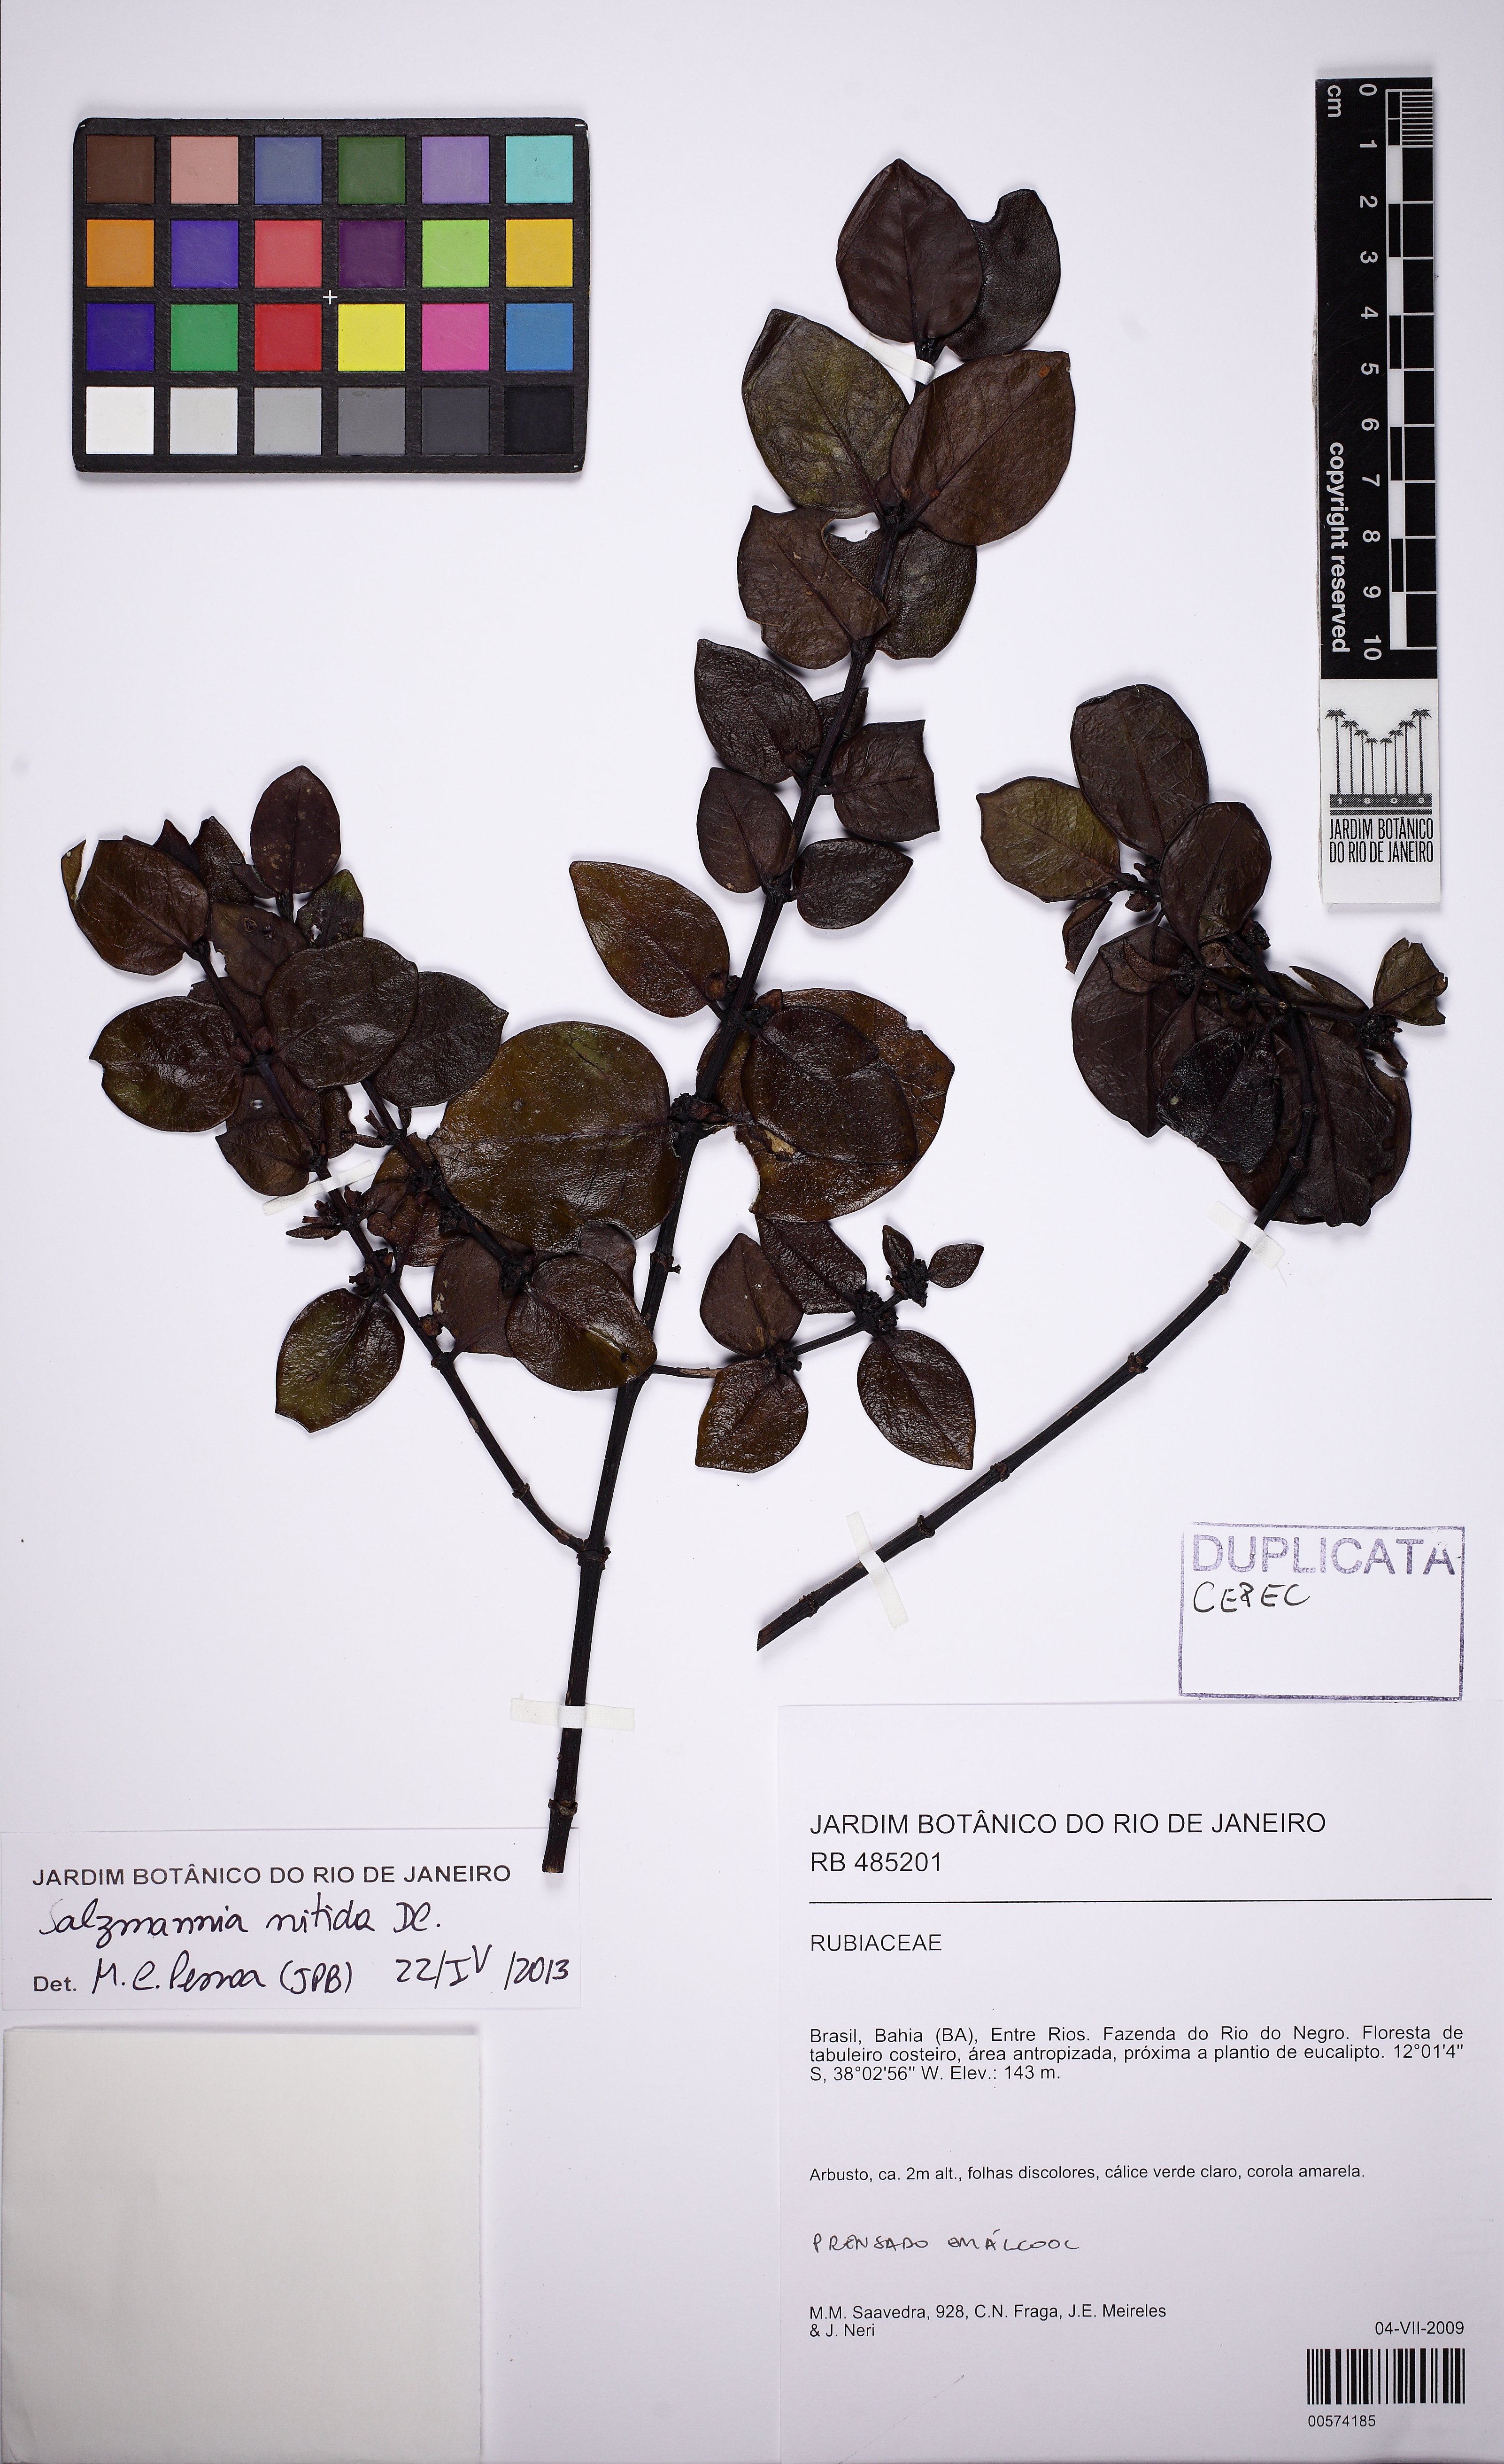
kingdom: Plantae
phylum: Tracheophyta
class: Magnoliopsida
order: Gentianales
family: Rubiaceae
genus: Salzmannia
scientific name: Salzmannia nitida
